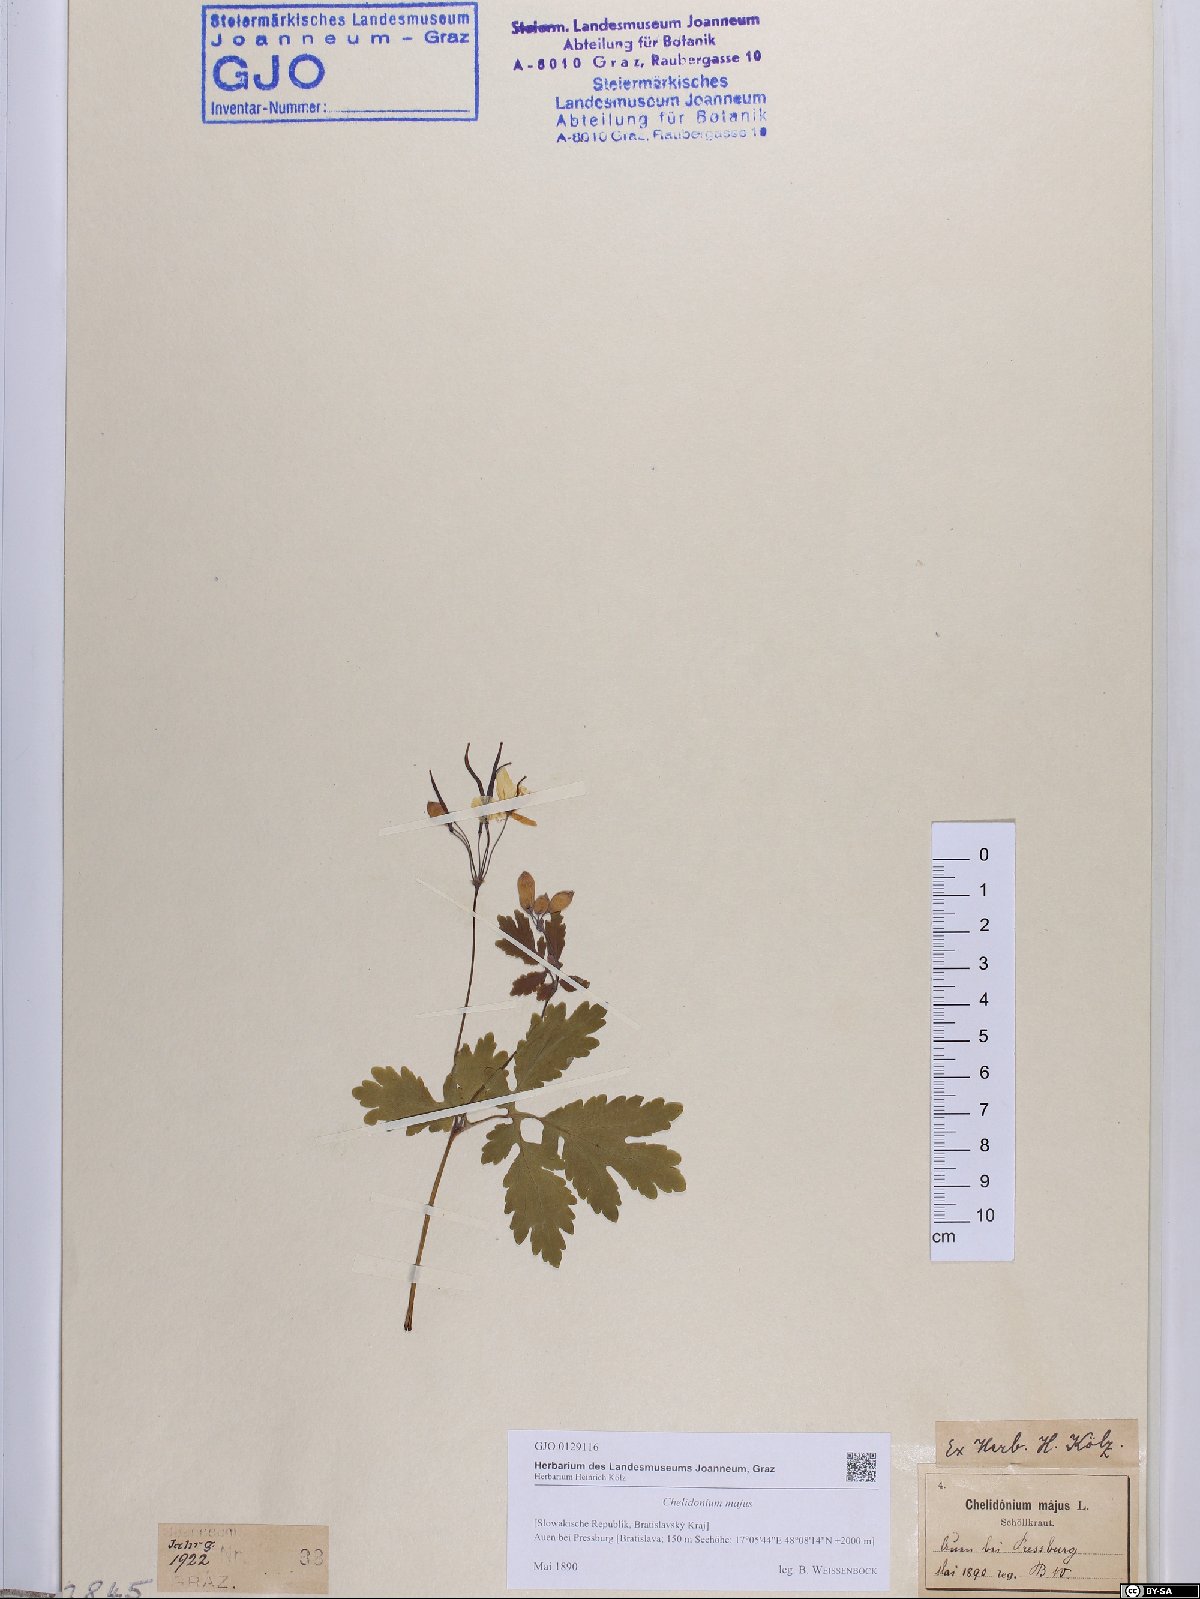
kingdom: Plantae
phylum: Tracheophyta
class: Magnoliopsida
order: Ranunculales
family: Papaveraceae
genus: Chelidonium
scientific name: Chelidonium majus
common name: Greater celandine
